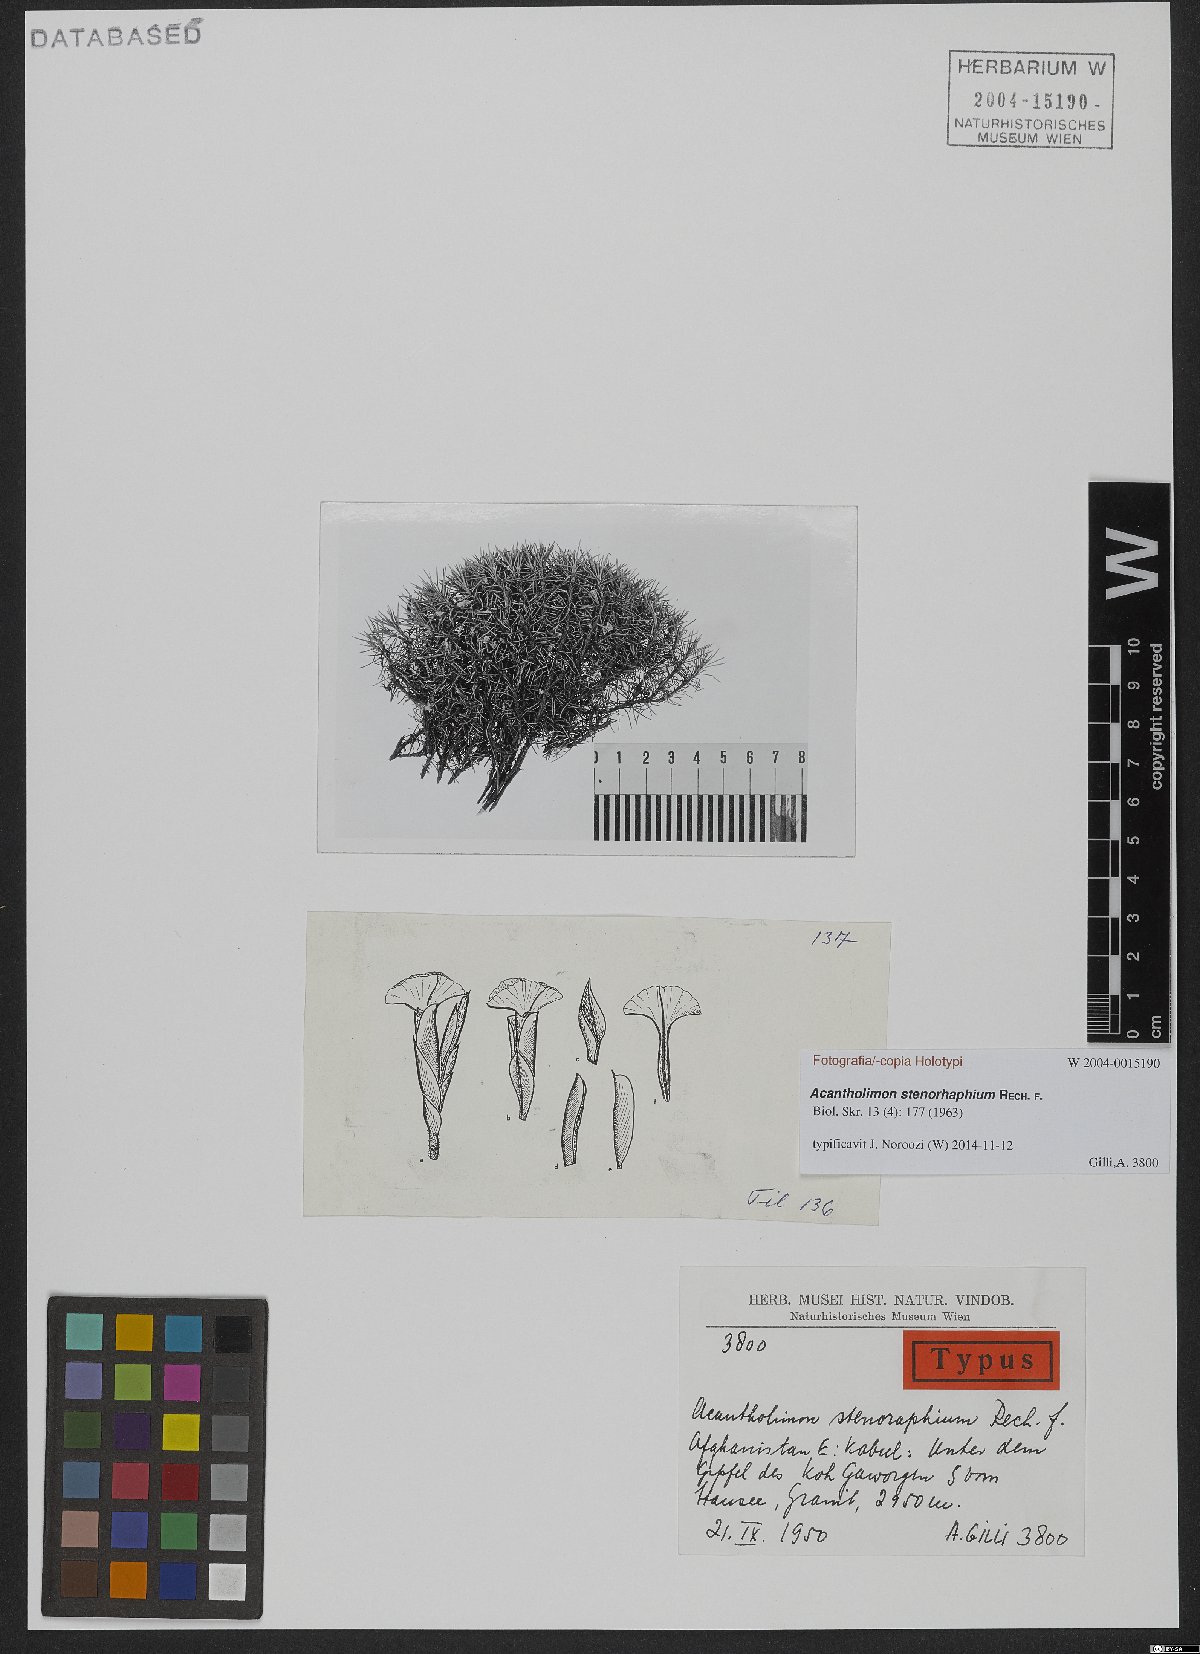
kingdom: Plantae
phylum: Tracheophyta
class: Magnoliopsida
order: Caryophyllales
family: Plumbaginaceae
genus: Acantholimon
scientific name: Acantholimon stenorhaphium
